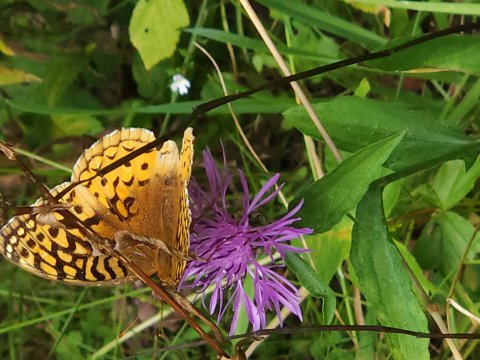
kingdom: Animalia
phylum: Arthropoda
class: Insecta
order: Lepidoptera
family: Nymphalidae
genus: Speyeria
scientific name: Speyeria cybele
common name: Great Spangled Fritillary
